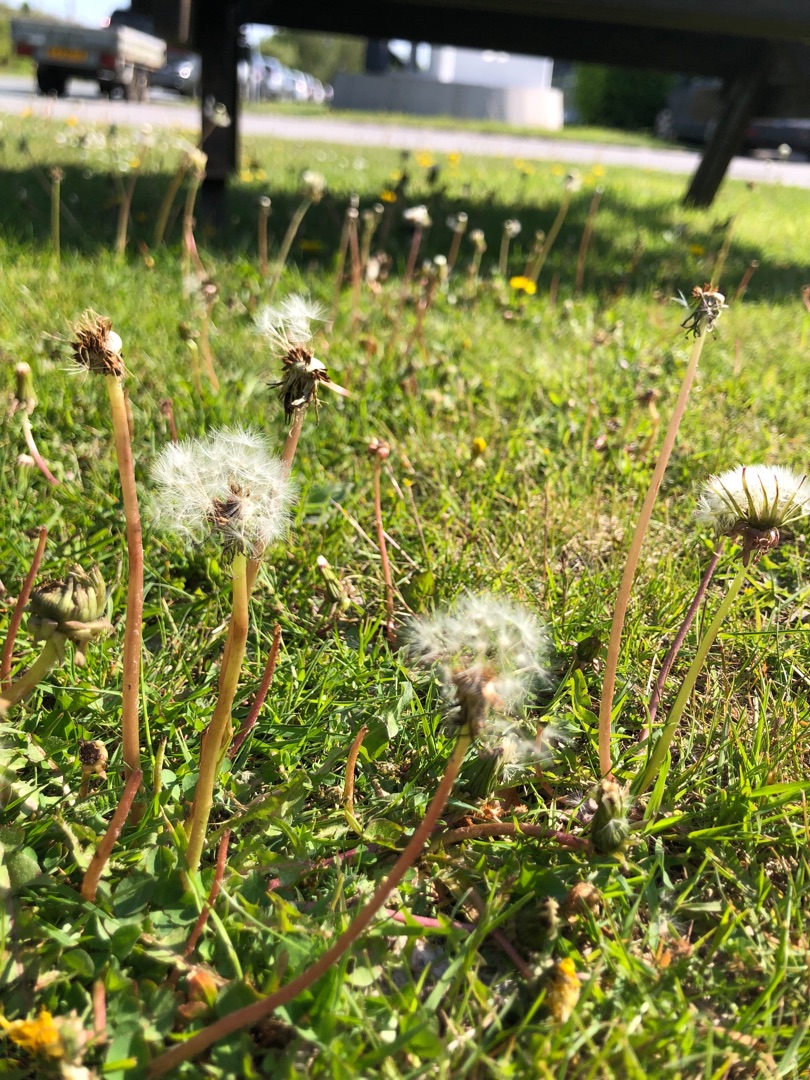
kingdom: Plantae
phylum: Tracheophyta
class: Magnoliopsida
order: Asterales
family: Asteraceae
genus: Taraxacum
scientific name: Taraxacum
